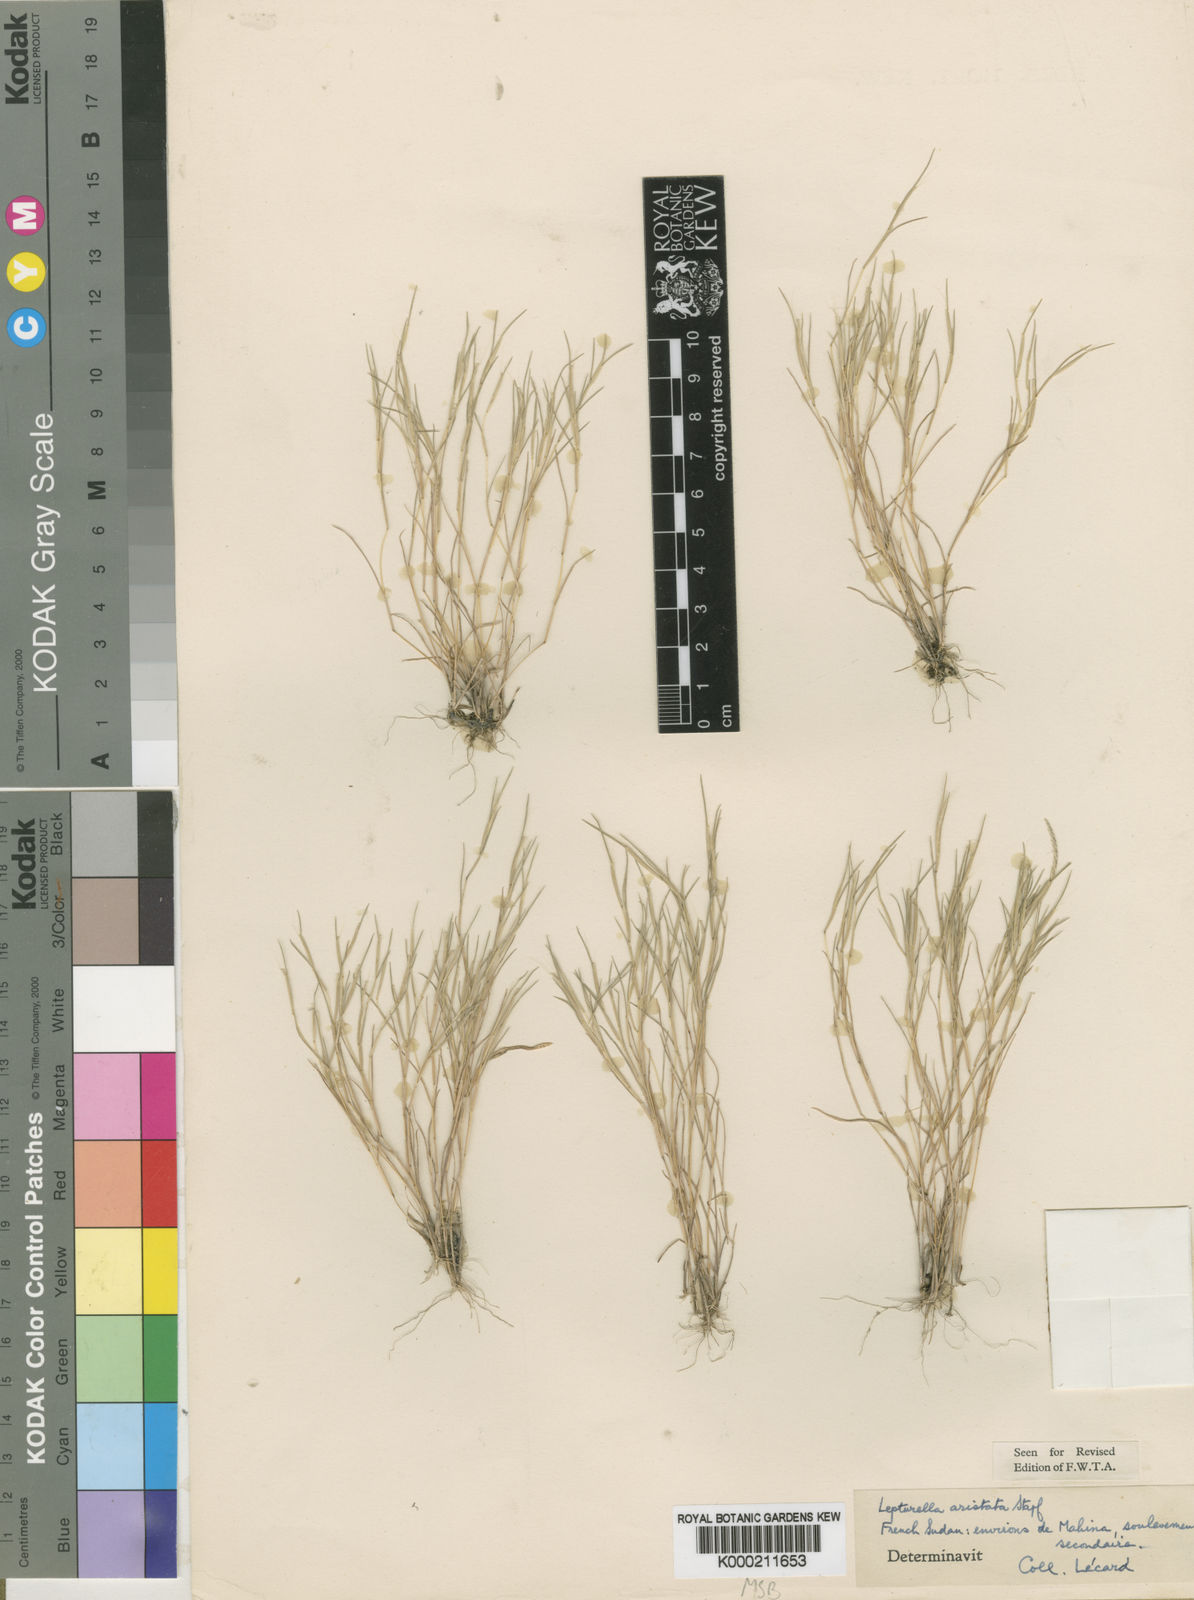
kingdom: Plantae
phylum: Tracheophyta
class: Liliopsida
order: Poales
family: Poaceae
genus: Oropetium
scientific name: Oropetium aristatum
